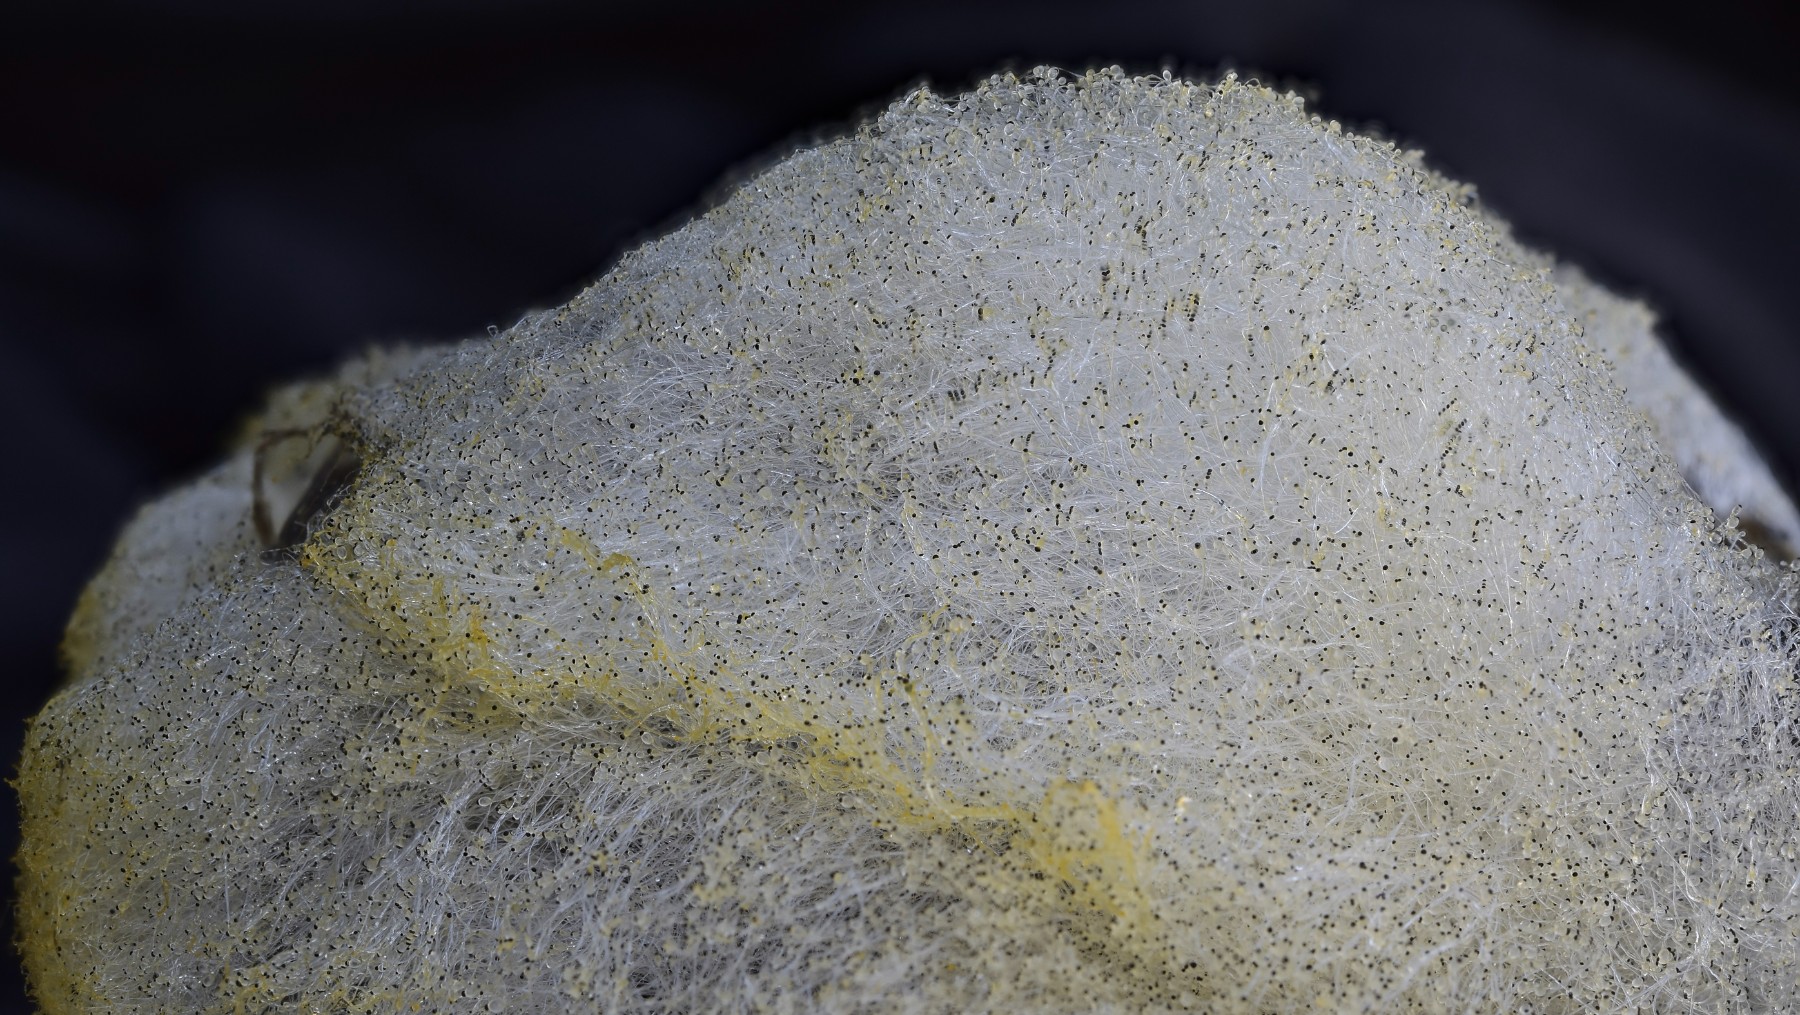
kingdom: Fungi
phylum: Mucoromycota
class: Mucoromycetes
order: Mucorales
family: Pilobolaceae
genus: Pilobolus
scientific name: Pilobolus lentiger
